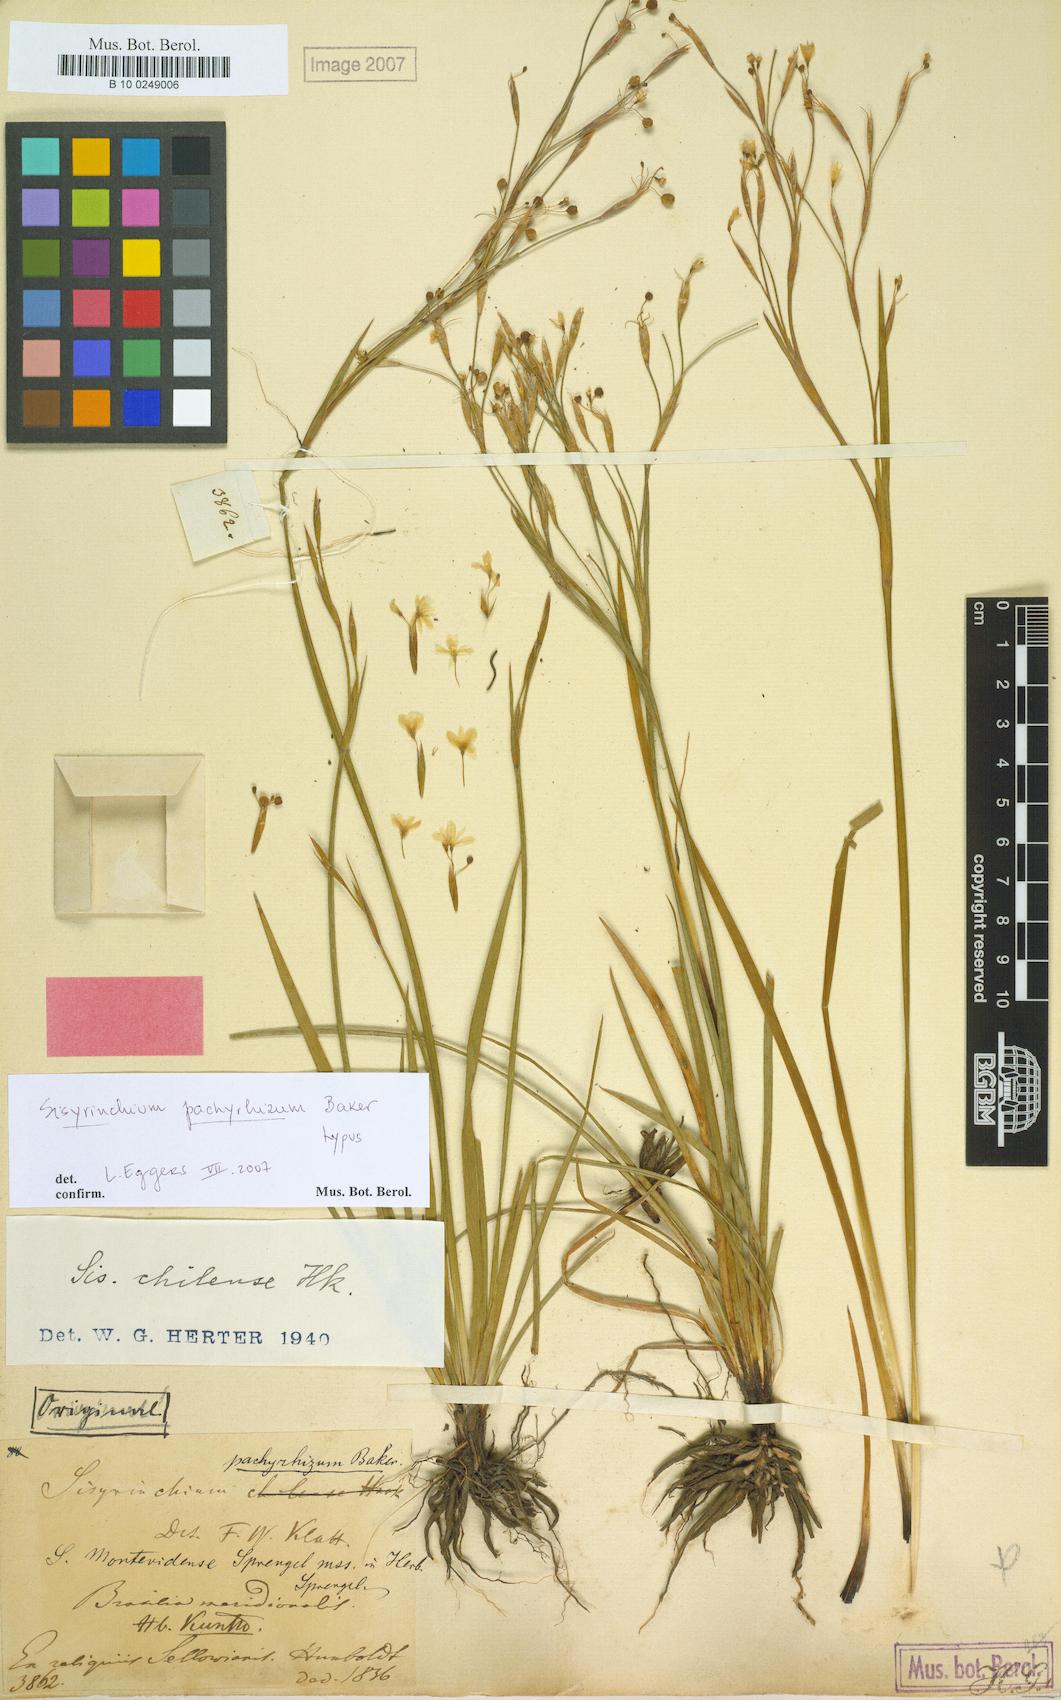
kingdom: Plantae
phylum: Tracheophyta
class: Liliopsida
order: Asparagales
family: Iridaceae
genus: Sisyrinchium
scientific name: Sisyrinchium pachyrhizum
